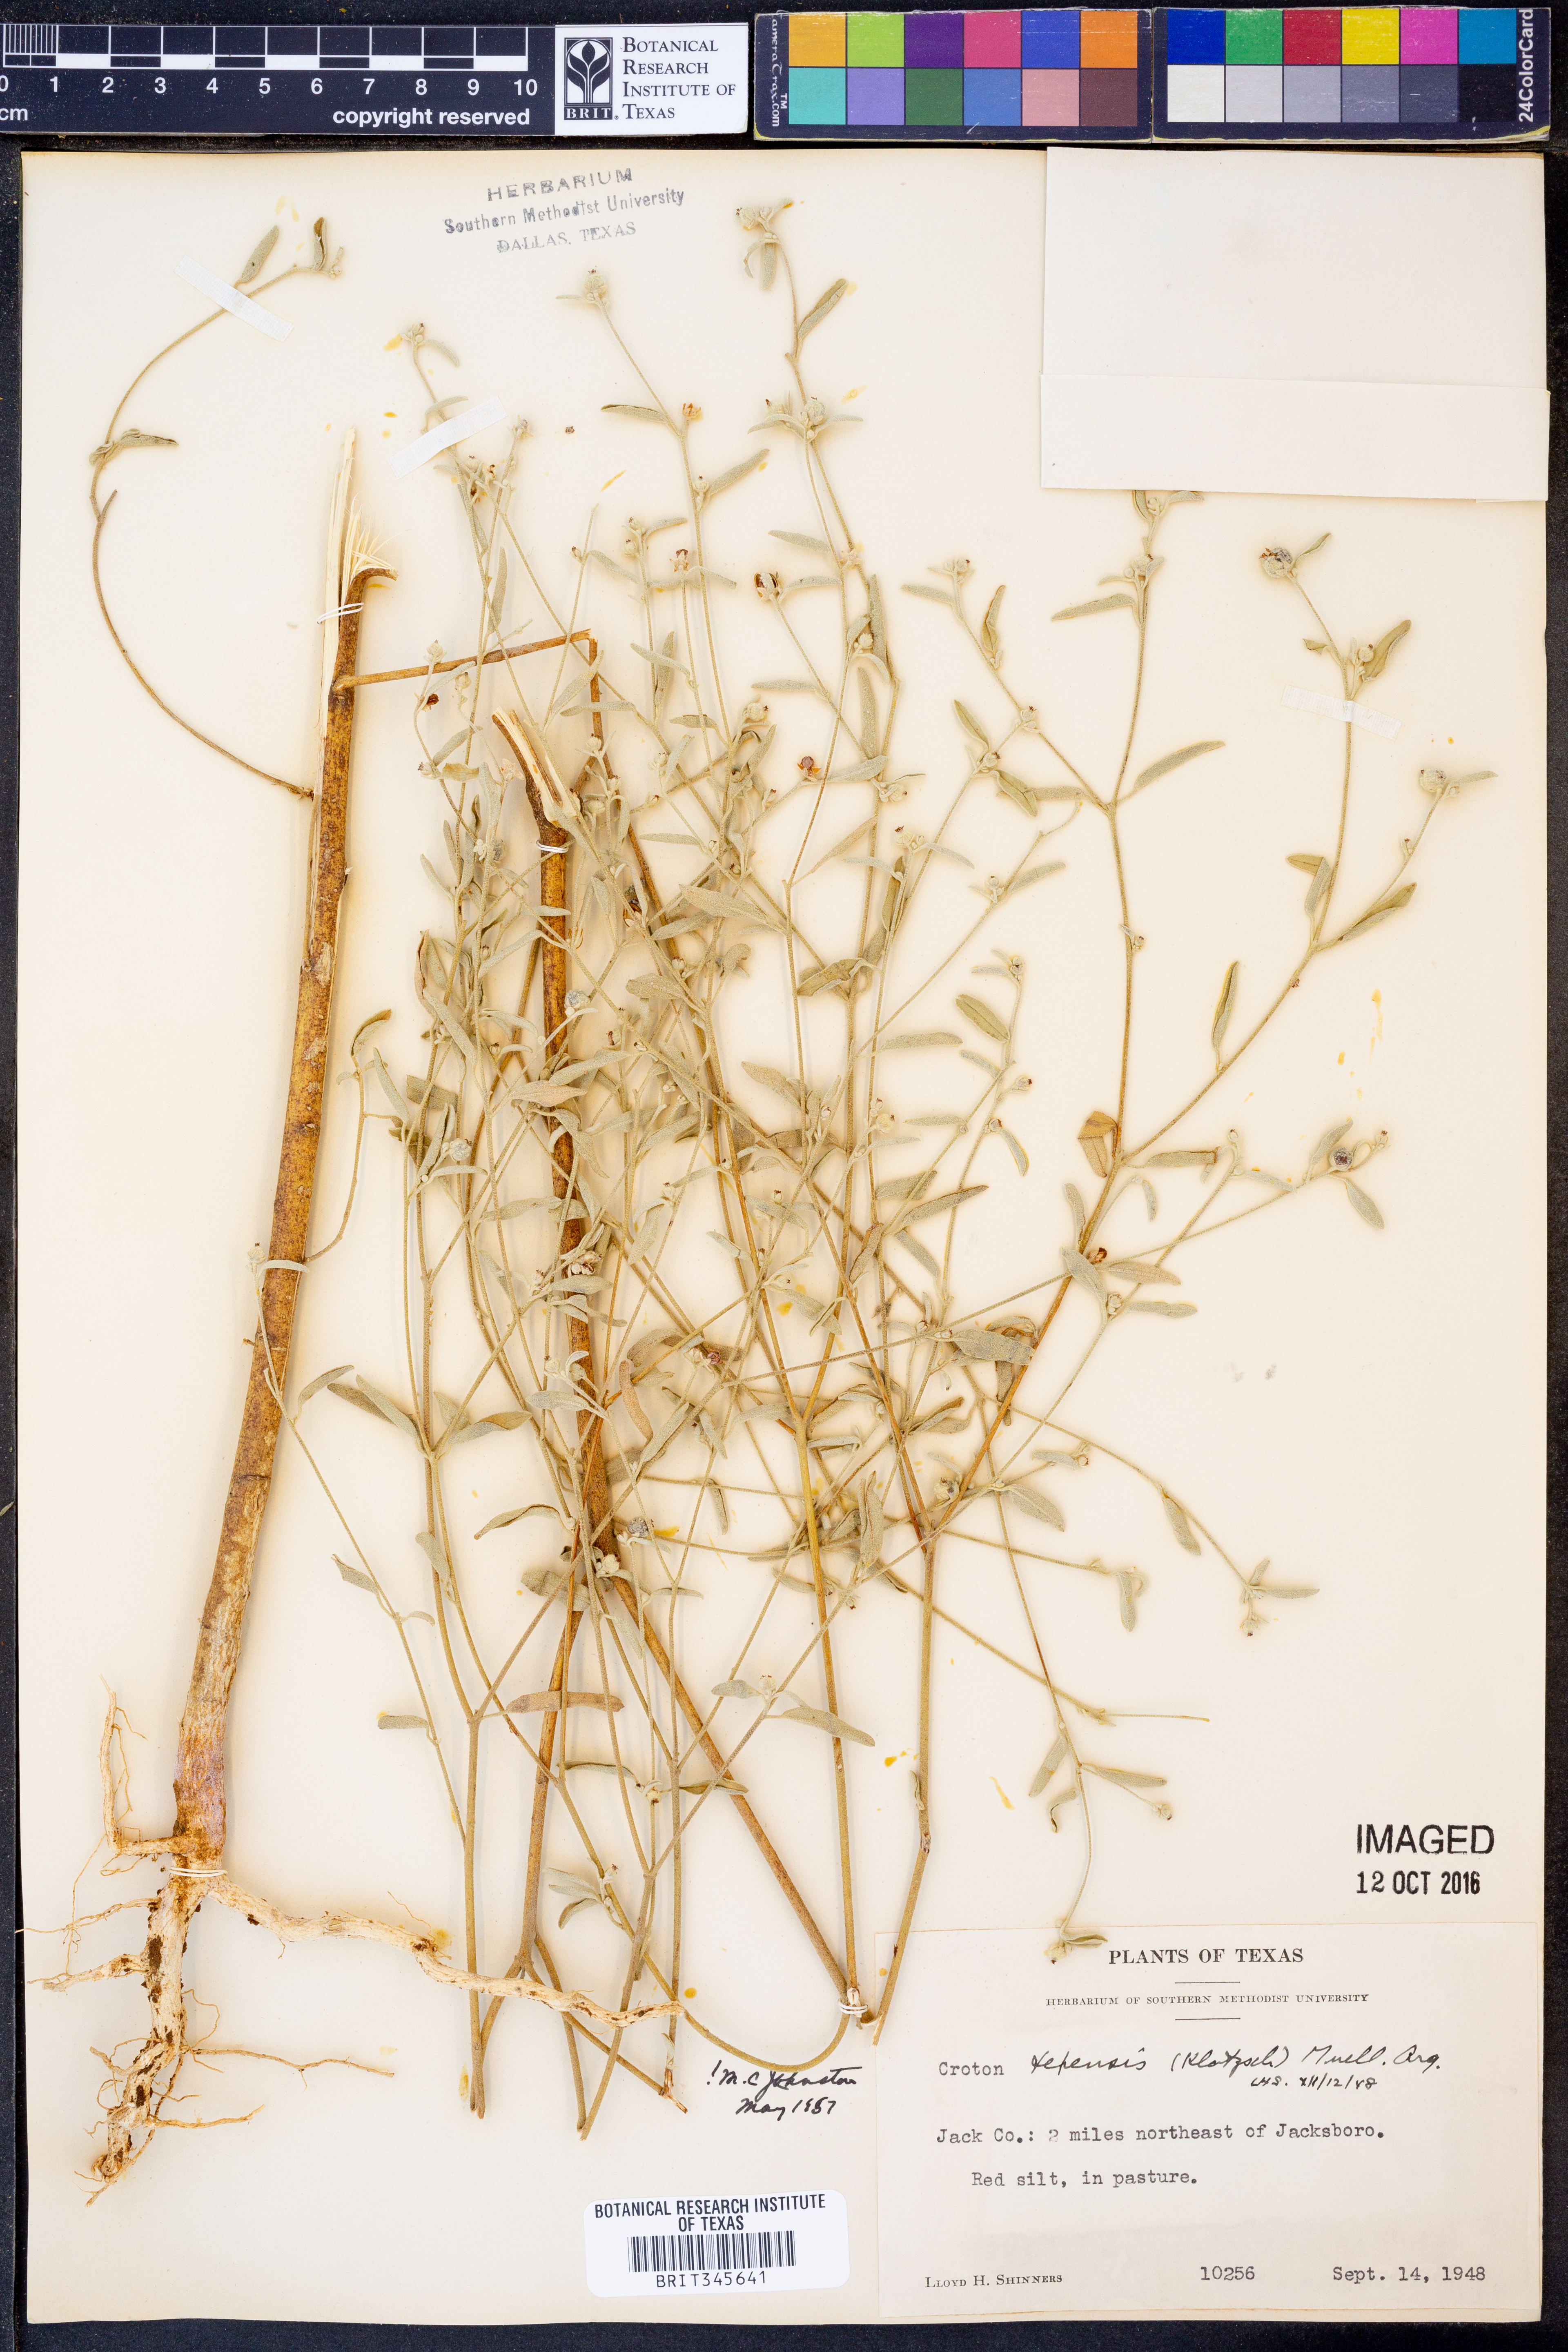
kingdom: Plantae
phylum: Tracheophyta
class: Magnoliopsida
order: Malpighiales
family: Euphorbiaceae
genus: Croton
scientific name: Croton texensis
